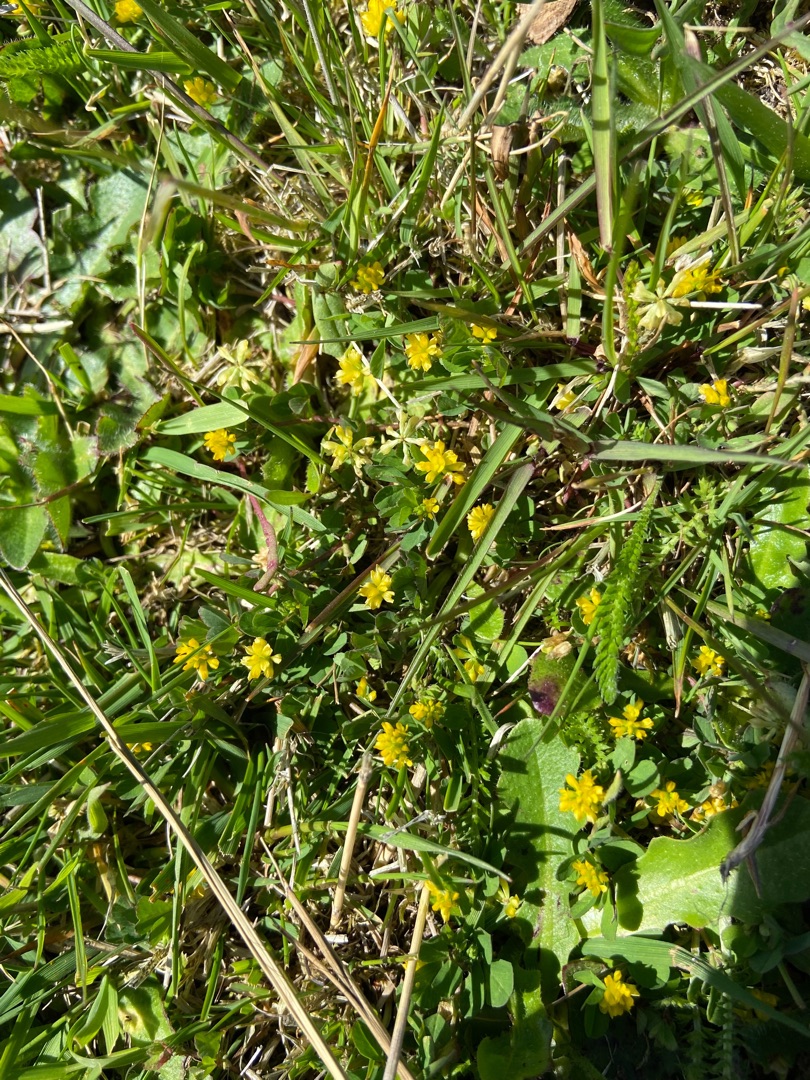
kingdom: Plantae
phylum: Tracheophyta
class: Magnoliopsida
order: Fabales
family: Fabaceae
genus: Trifolium
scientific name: Trifolium dubium
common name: Fin kløver
